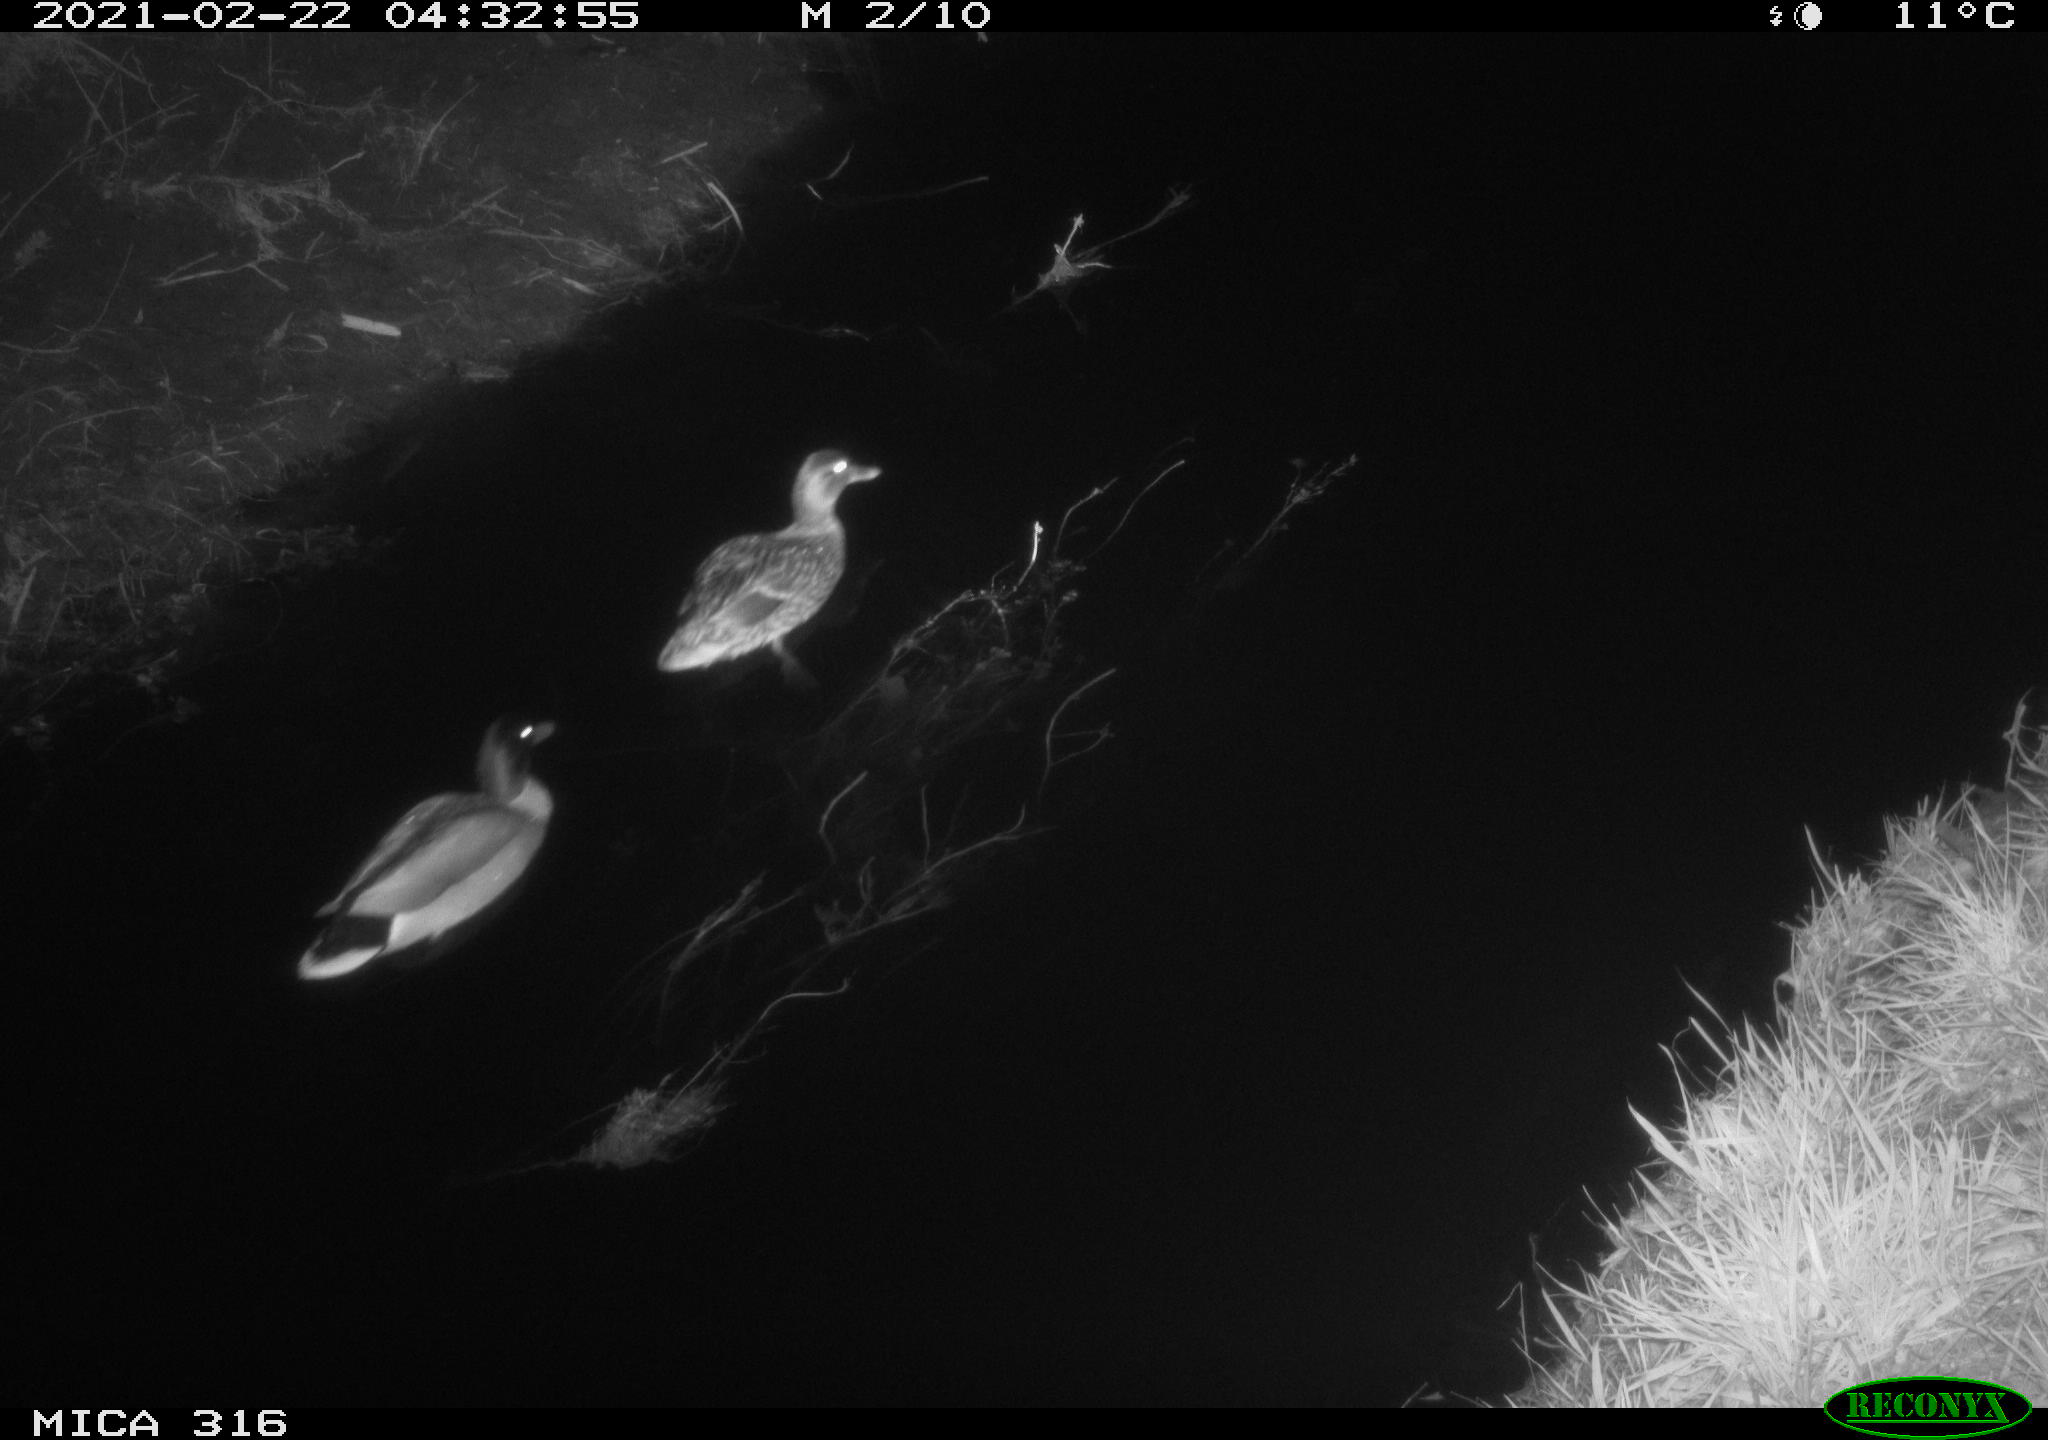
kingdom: Animalia
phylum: Chordata
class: Aves
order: Anseriformes
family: Anatidae
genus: Anas
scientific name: Anas platyrhynchos
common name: Mallard
